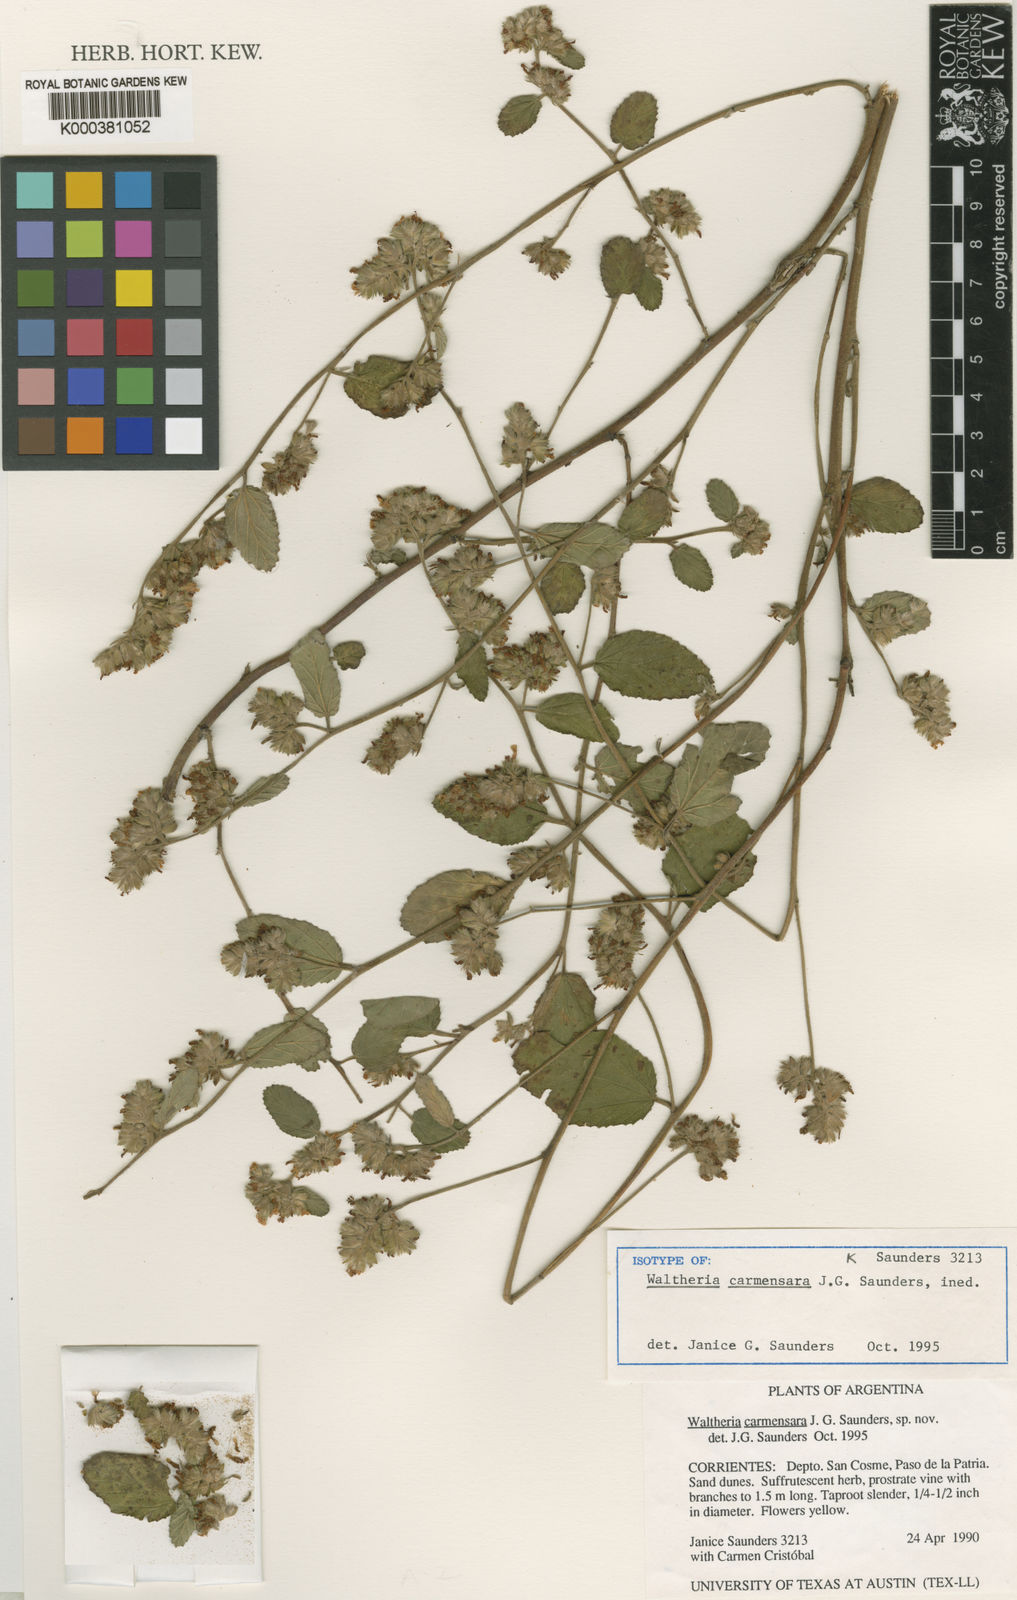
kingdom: Plantae
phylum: Tracheophyta
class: Magnoliopsida
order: Malvales
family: Malvaceae
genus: Waltheria
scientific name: Waltheria carmensarae
